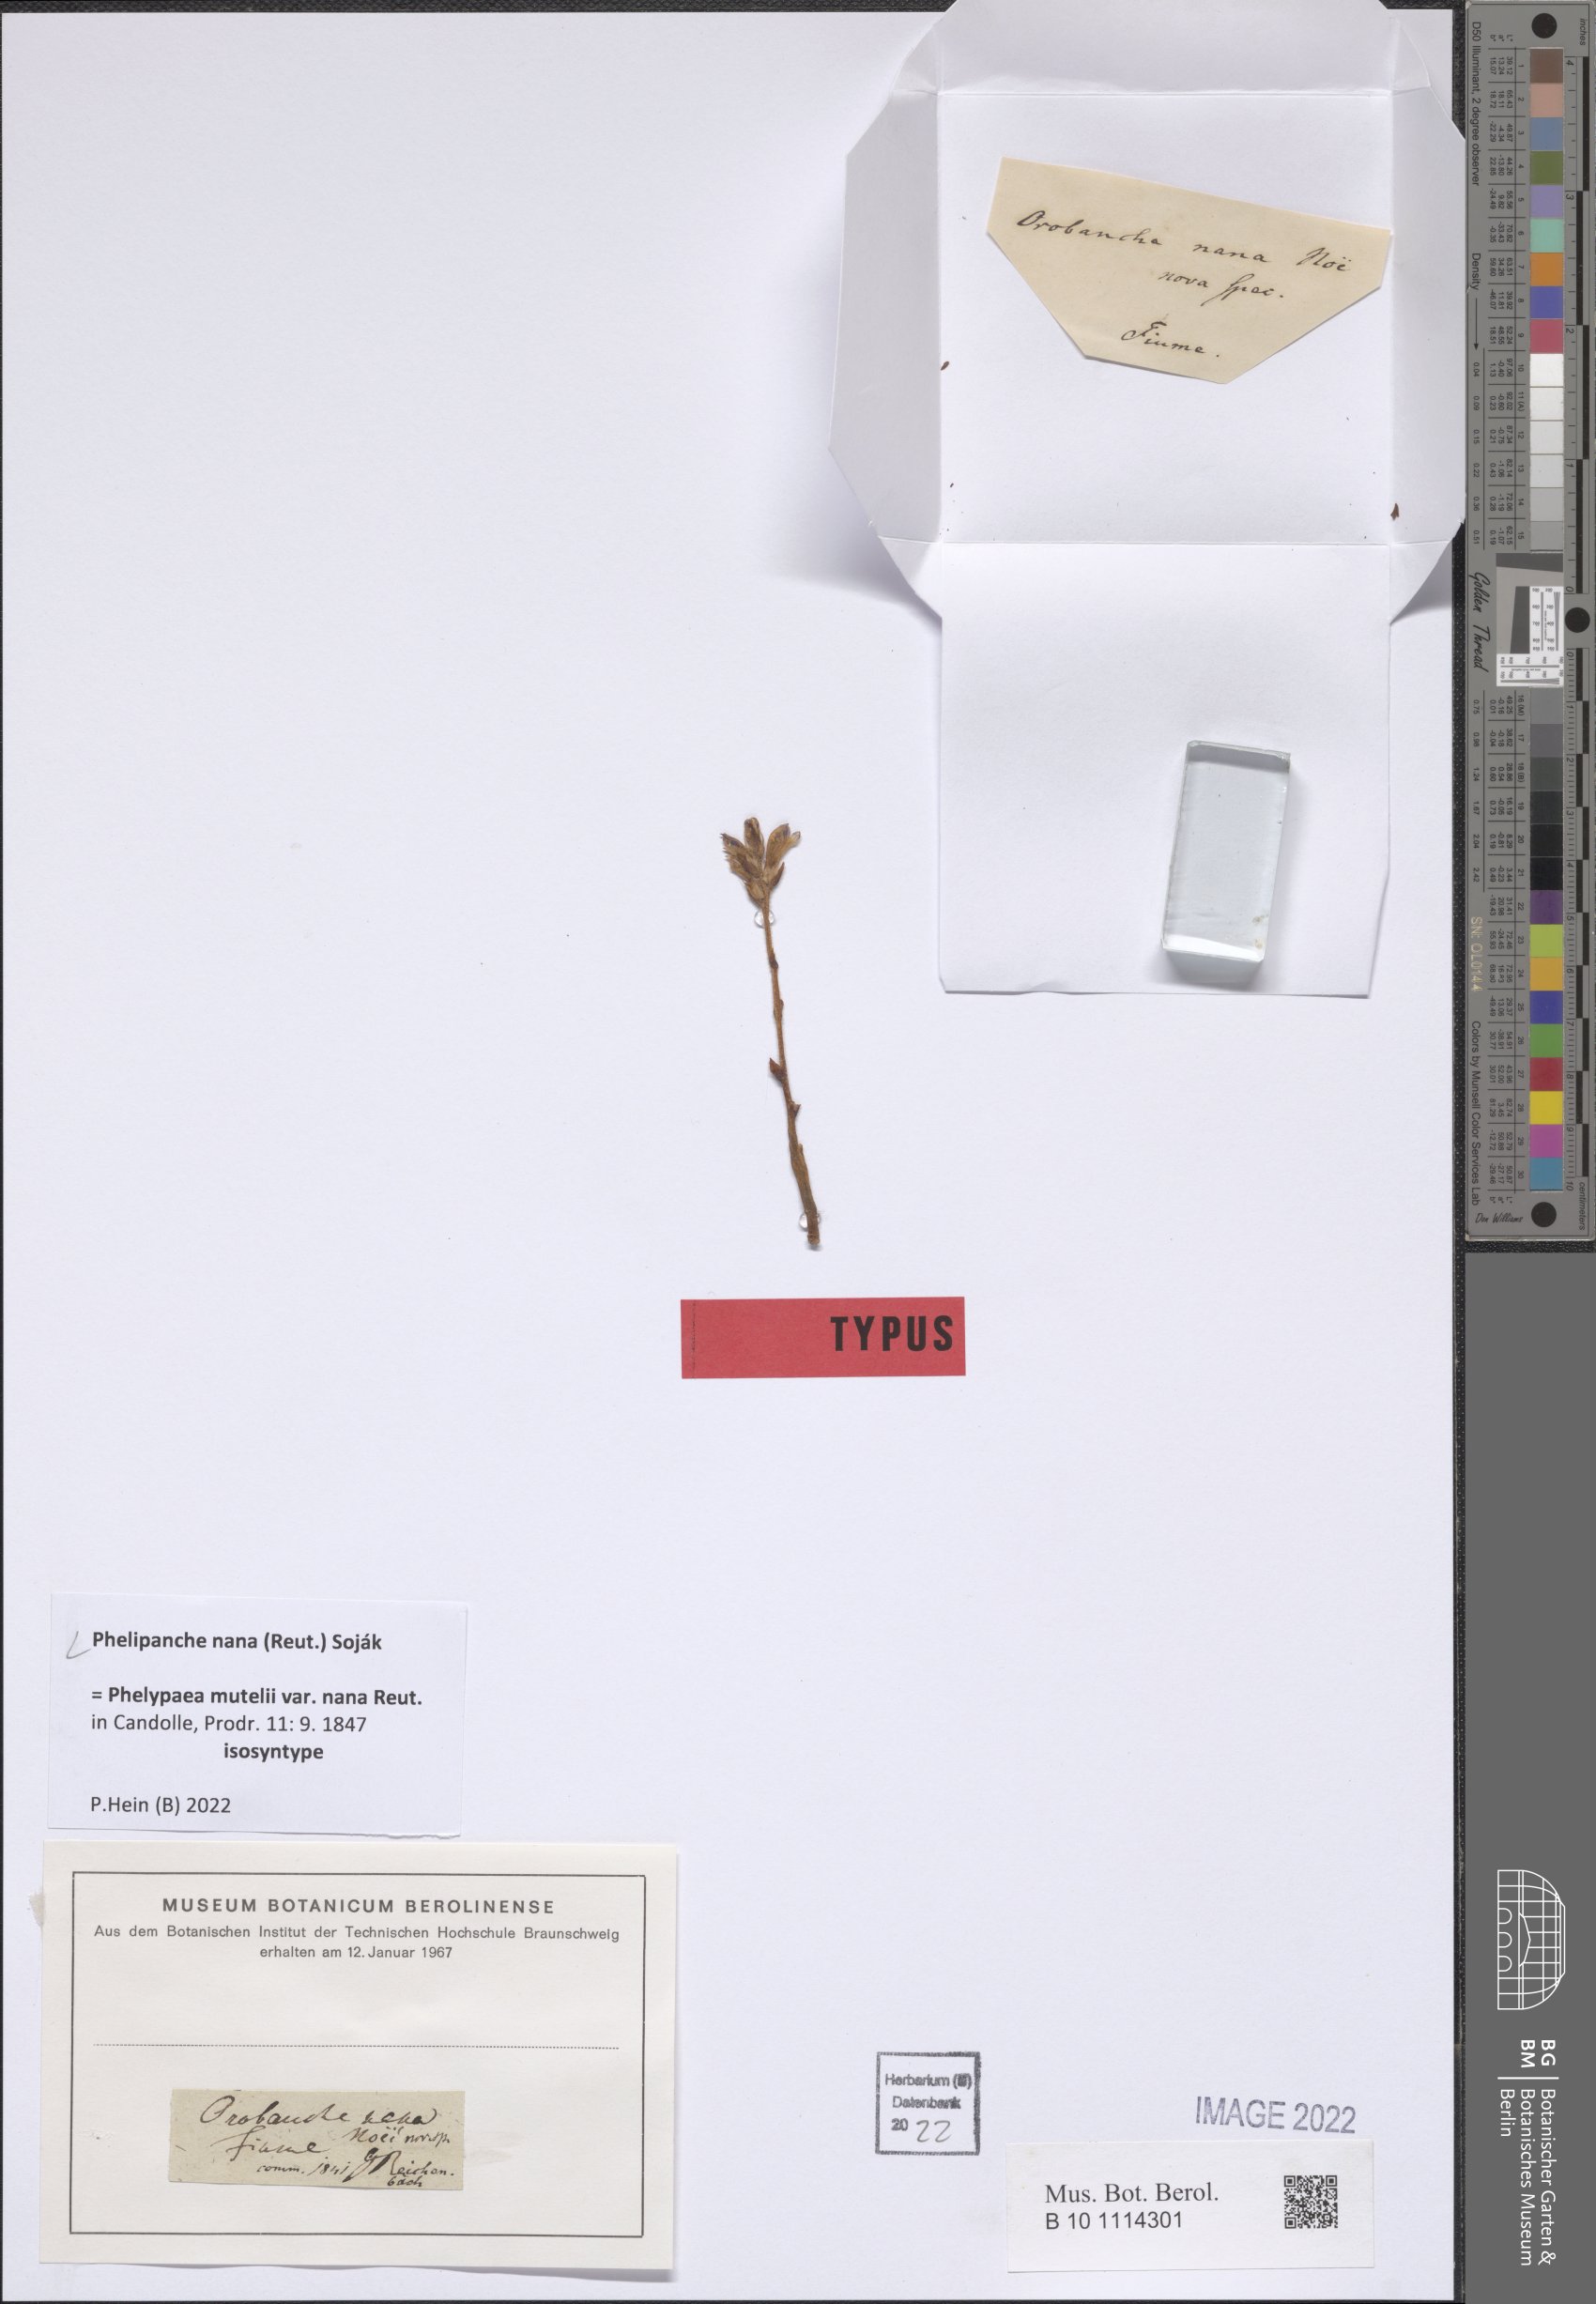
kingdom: Plantae
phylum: Tracheophyta
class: Magnoliopsida
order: Lamiales
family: Orobanchaceae
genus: Phelipanche
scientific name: Phelipanche mutelii
